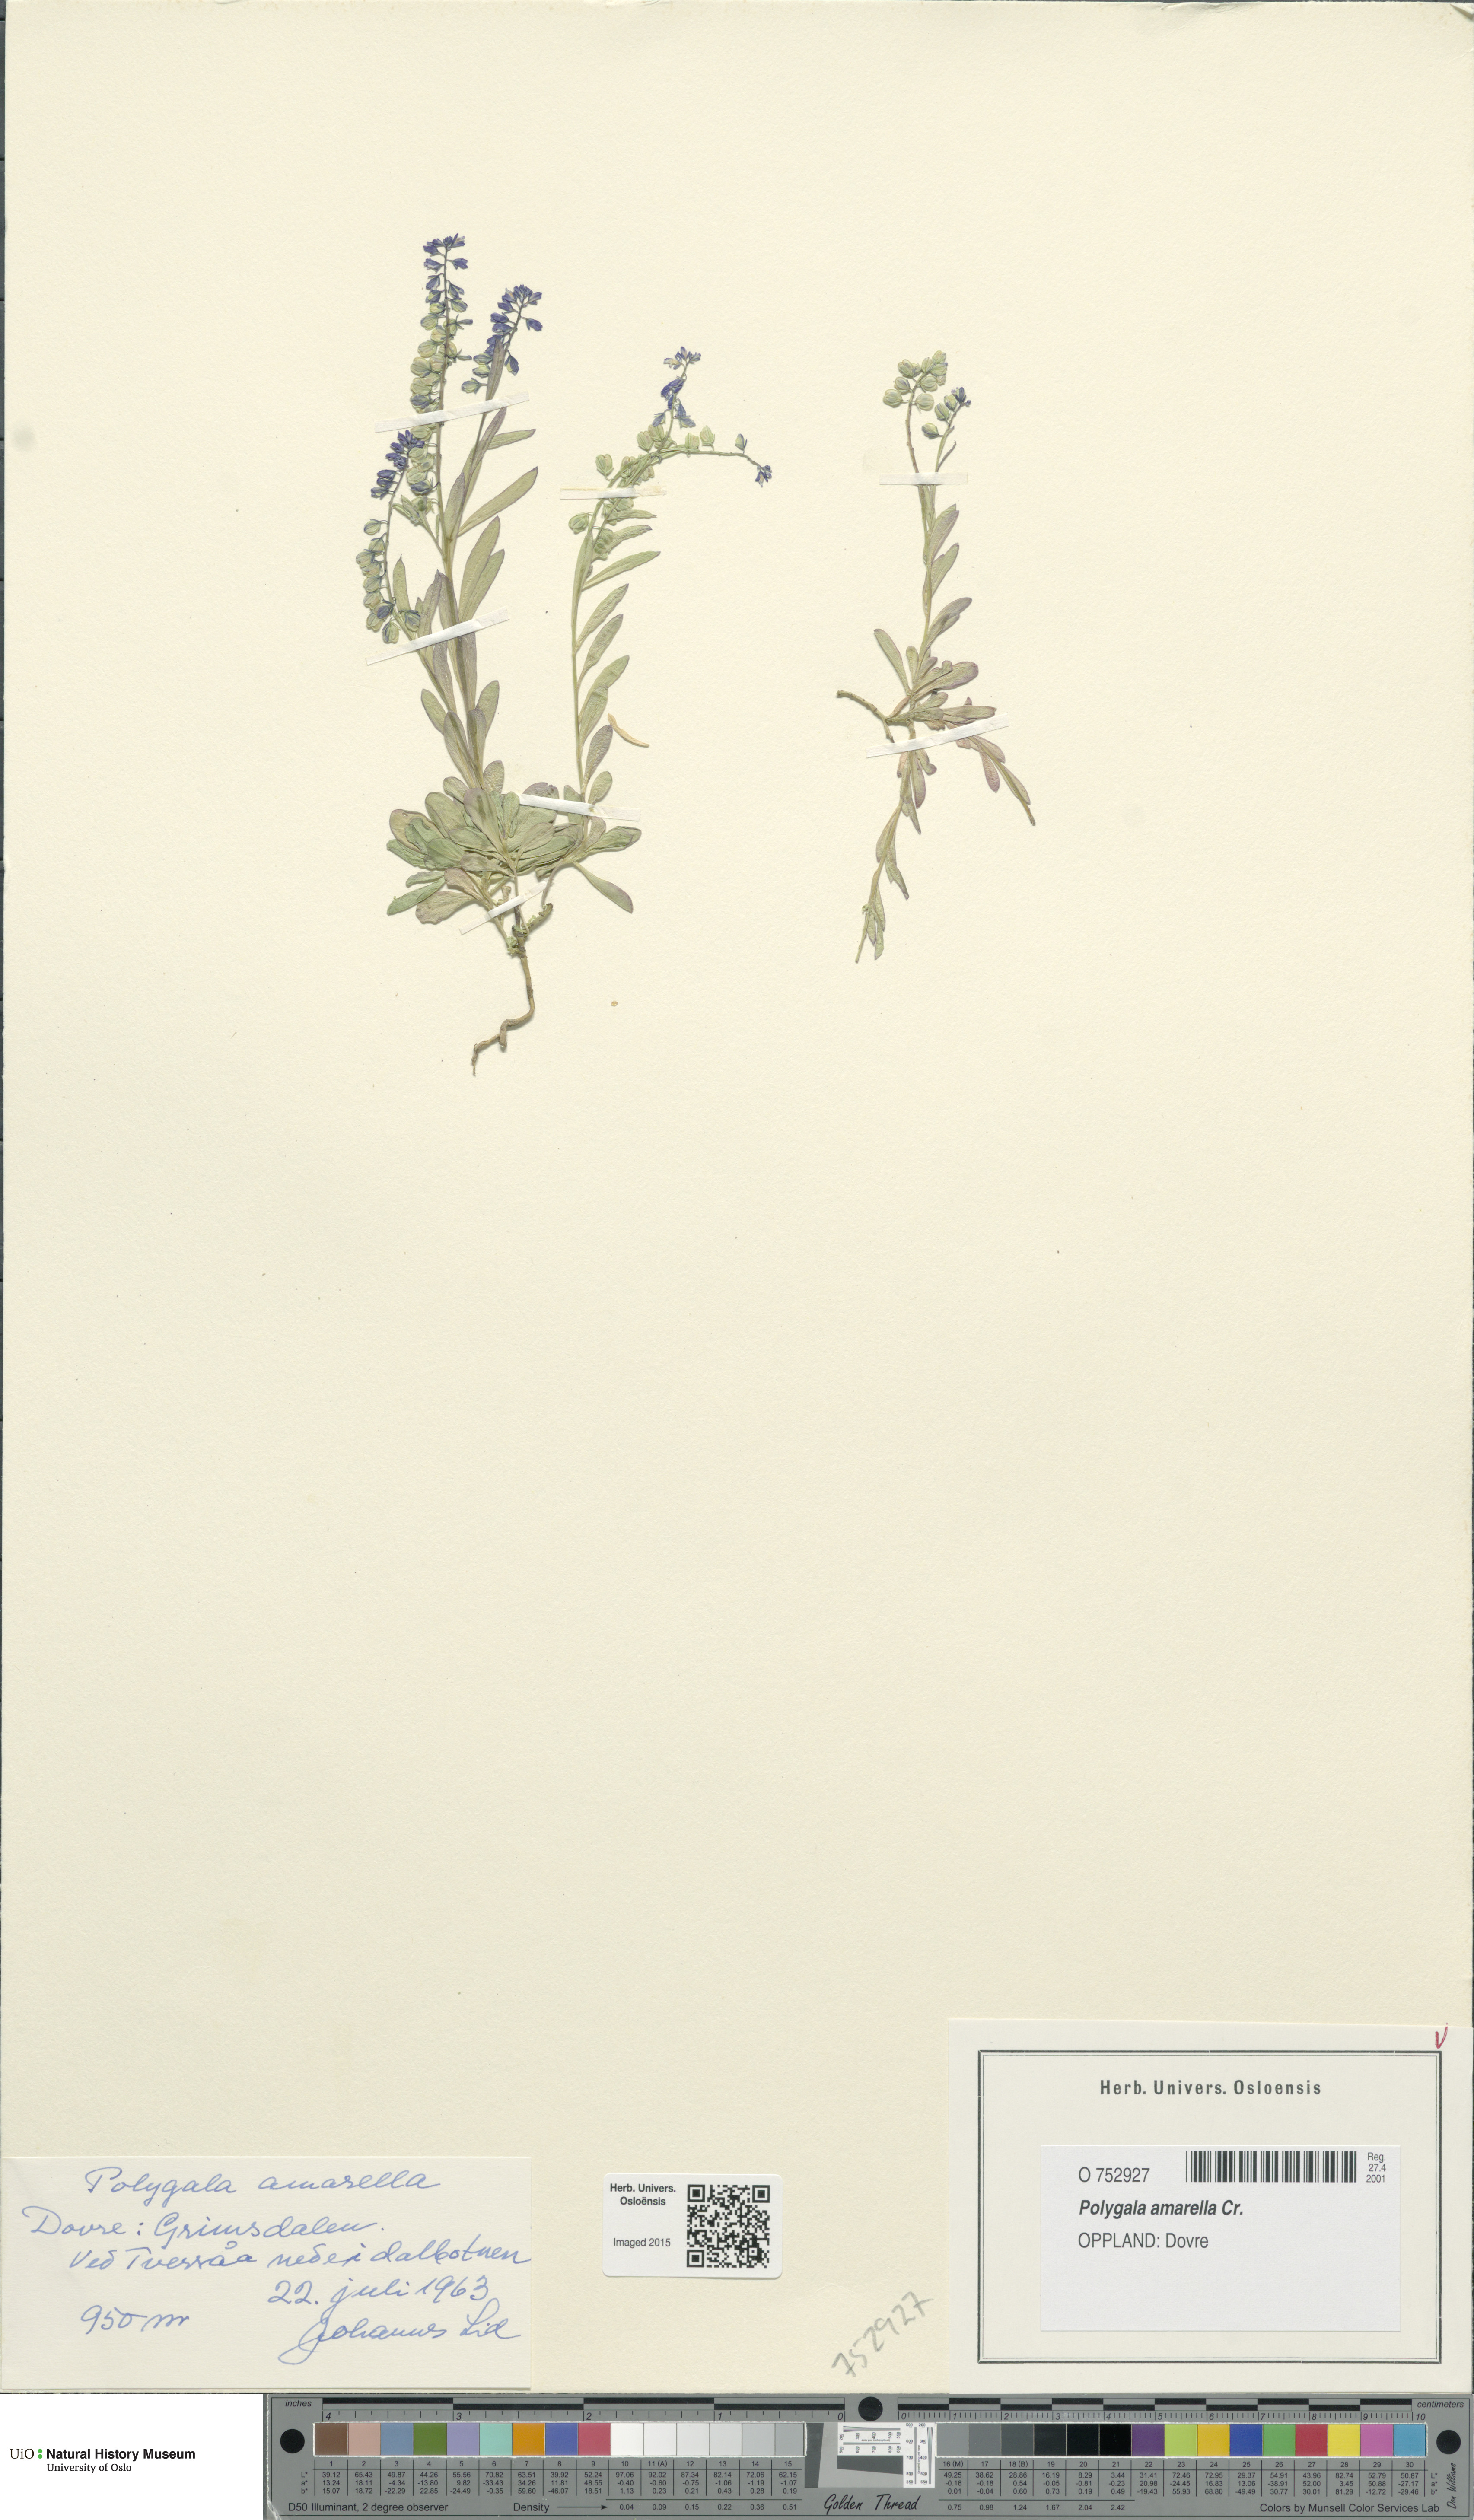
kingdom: Plantae
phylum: Tracheophyta
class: Magnoliopsida
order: Fabales
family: Polygalaceae
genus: Polygala
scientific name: Polygala amarella
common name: Dwarf milkwort
